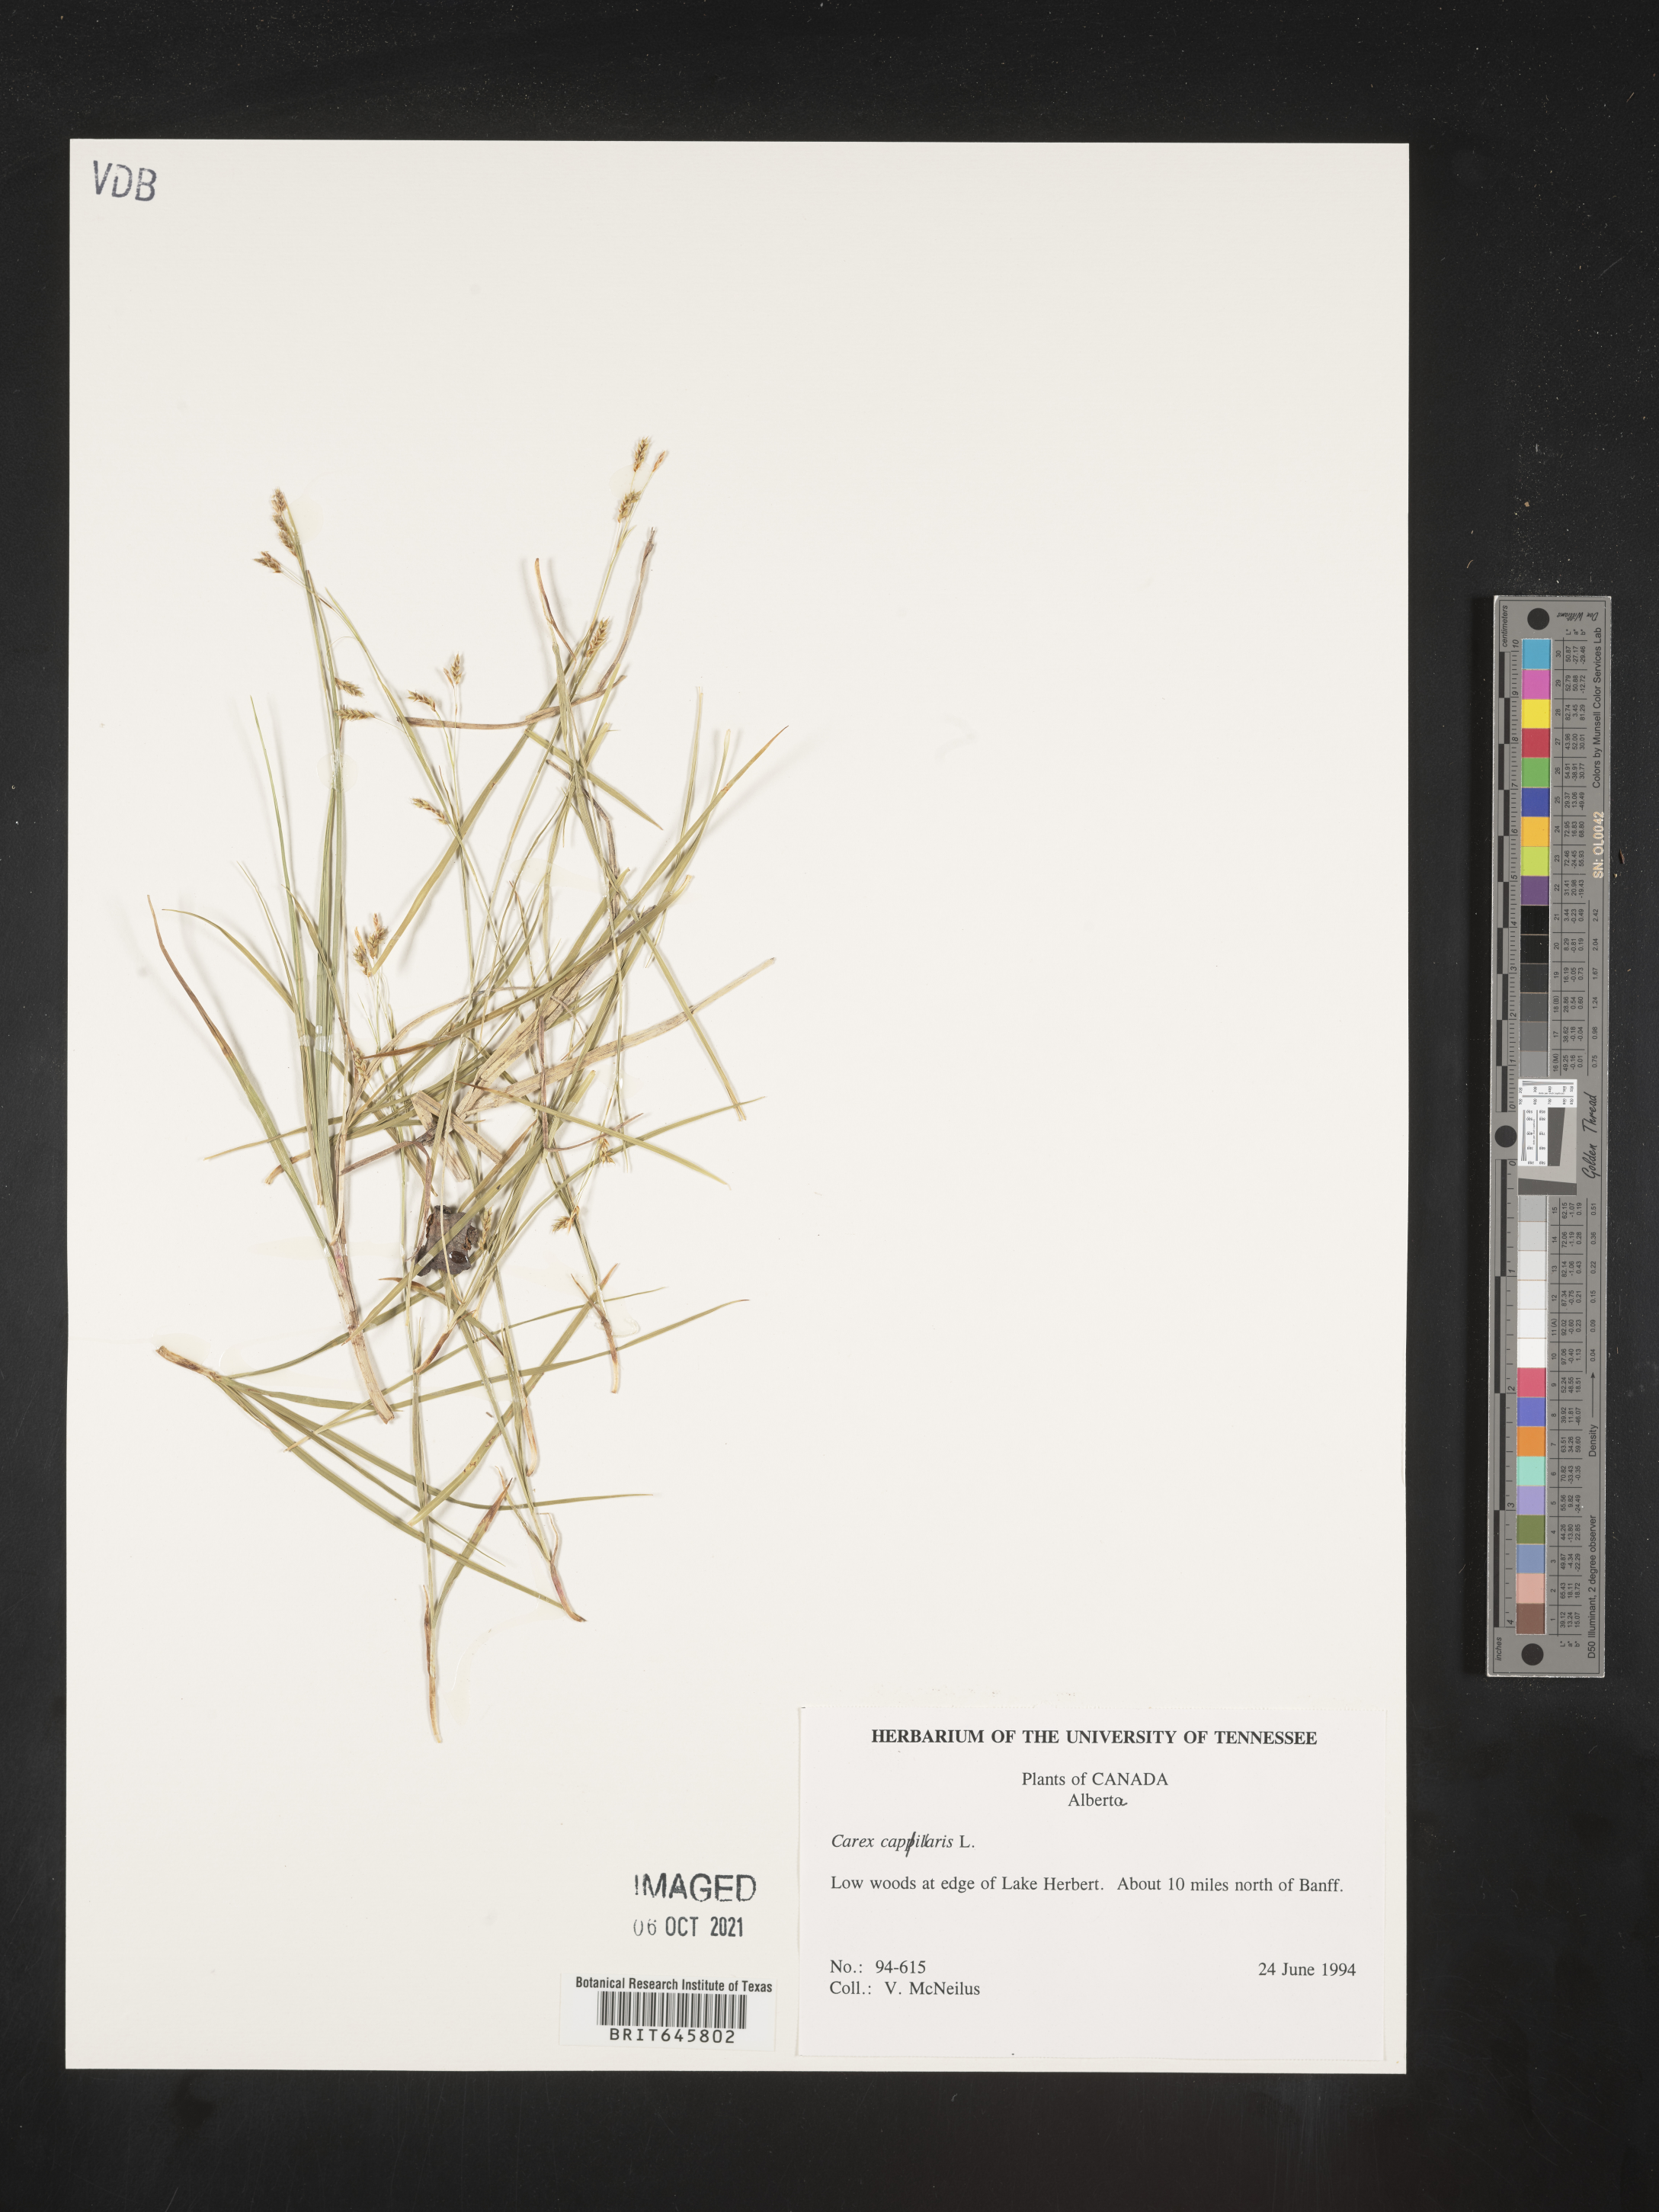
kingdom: Plantae
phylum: Tracheophyta
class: Liliopsida
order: Poales
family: Cyperaceae
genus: Carex
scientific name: Carex capillaris
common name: Hair sedge
